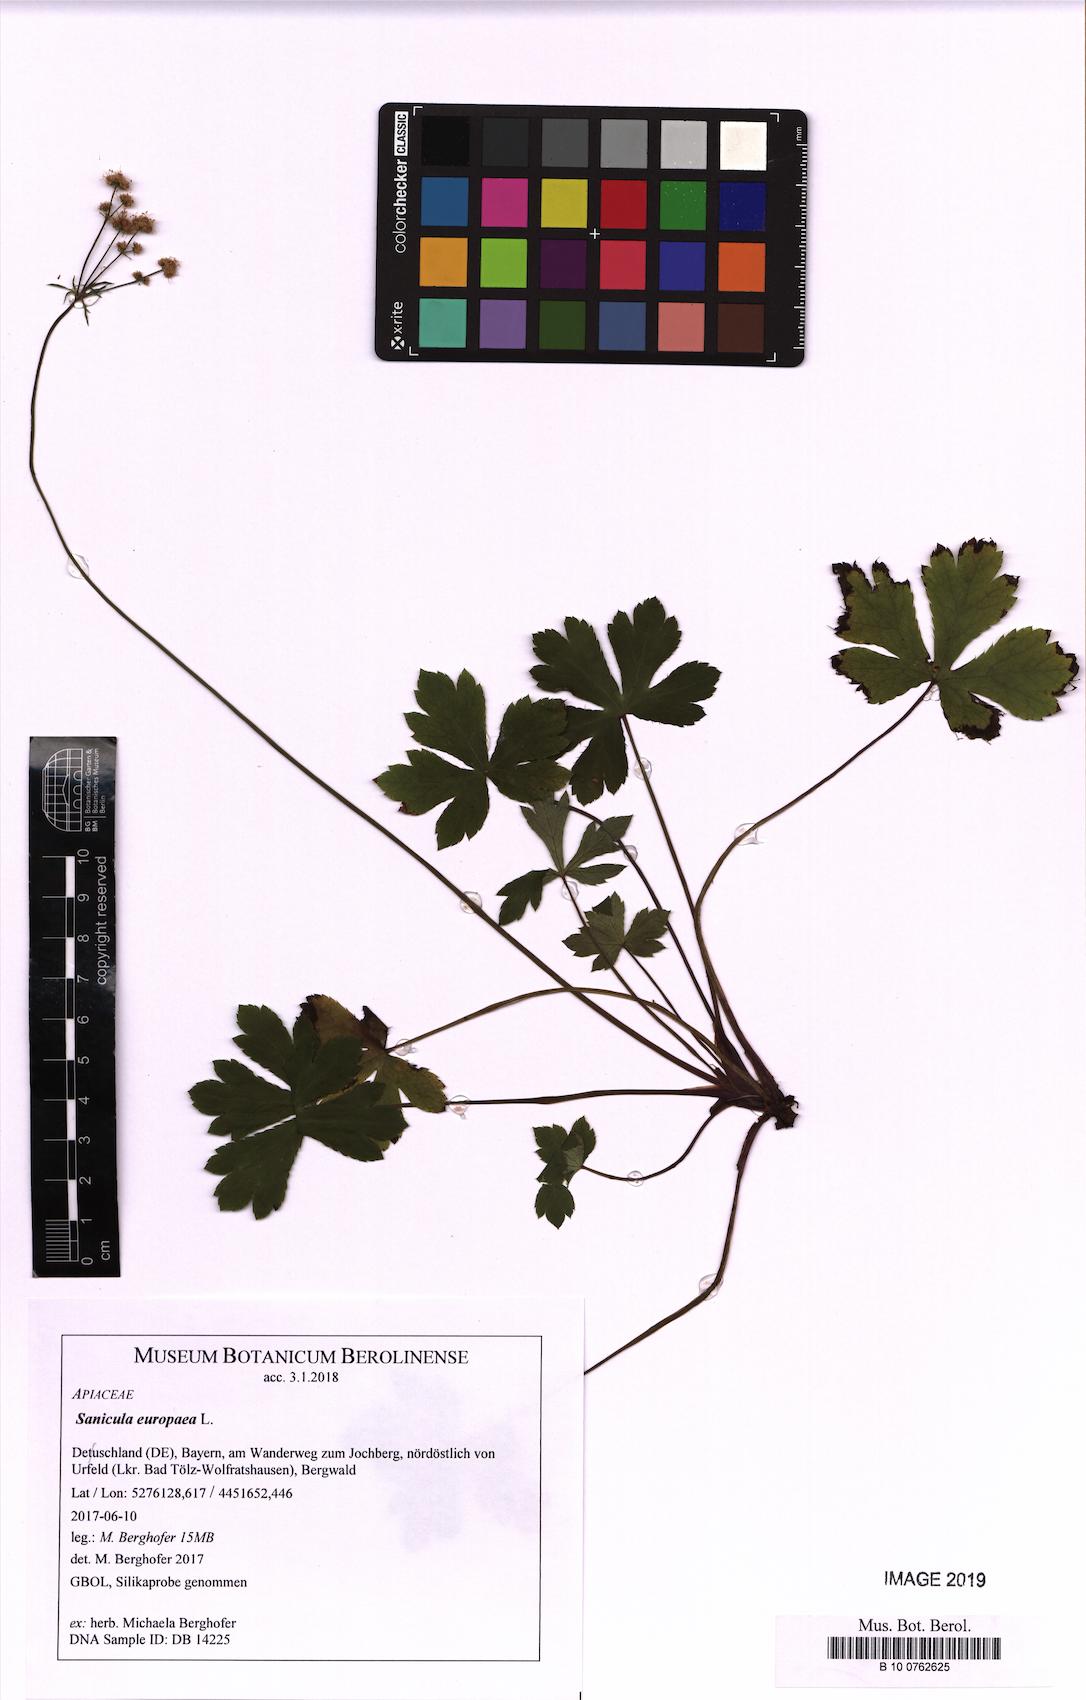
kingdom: Plantae
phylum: Tracheophyta
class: Magnoliopsida
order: Apiales
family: Apiaceae
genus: Sanicula
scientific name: Sanicula europaea
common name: Sanicle
